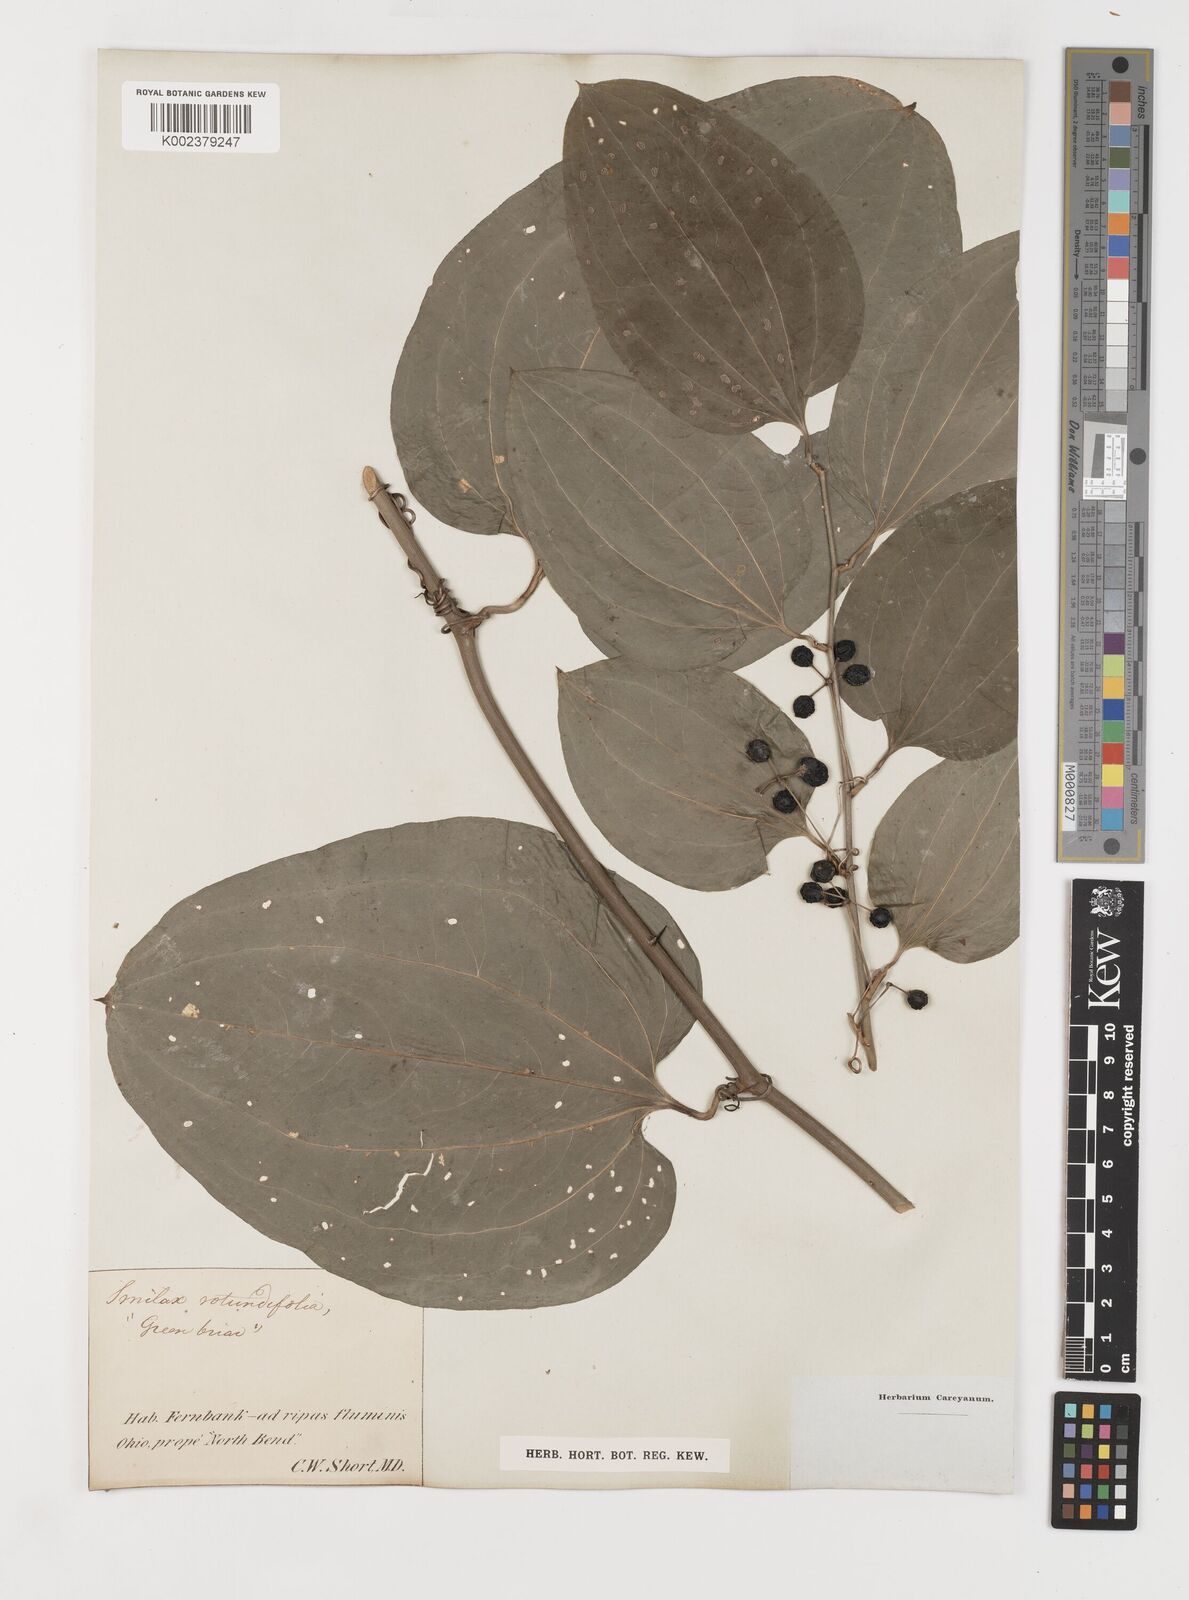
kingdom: Plantae
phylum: Tracheophyta
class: Liliopsida
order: Liliales
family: Smilacaceae
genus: Smilax
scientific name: Smilax rotundifolia
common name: Bullbriar
